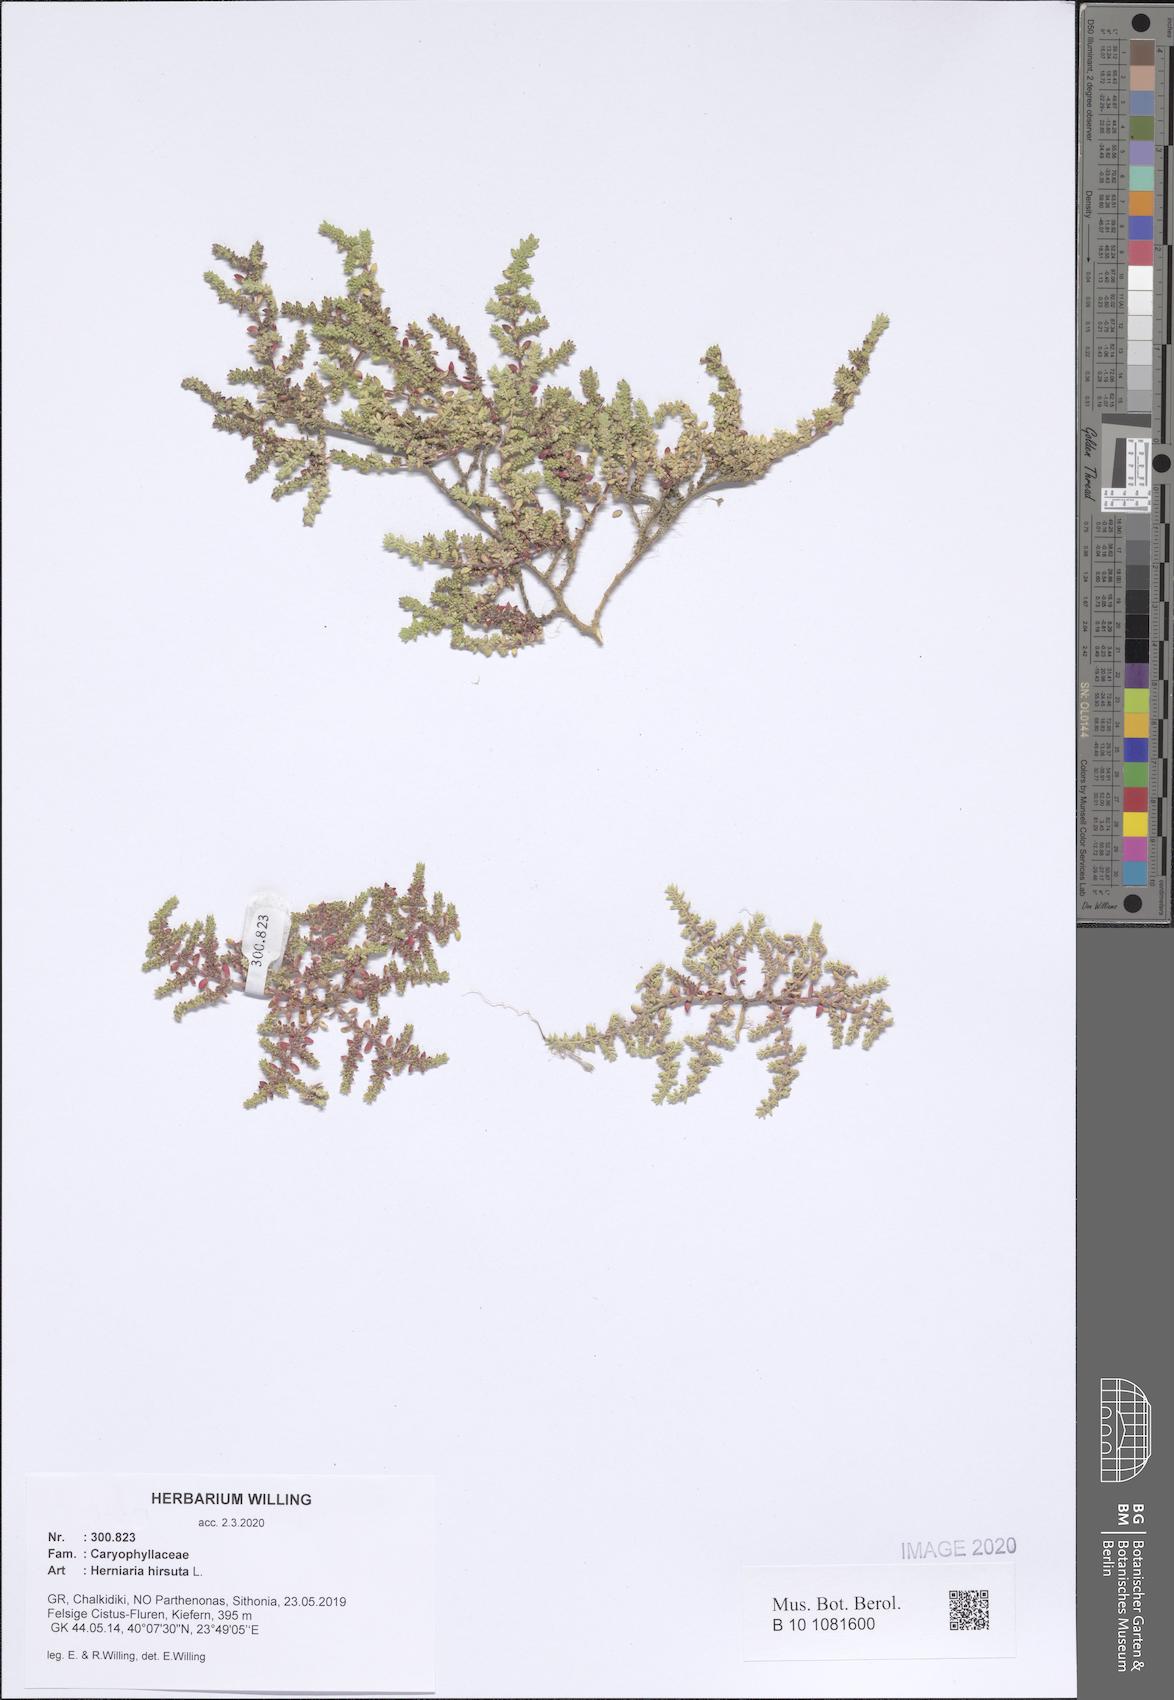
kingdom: Plantae
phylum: Tracheophyta
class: Magnoliopsida
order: Caryophyllales
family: Caryophyllaceae
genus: Herniaria
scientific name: Herniaria hirsuta
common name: Hairy rupturewort
